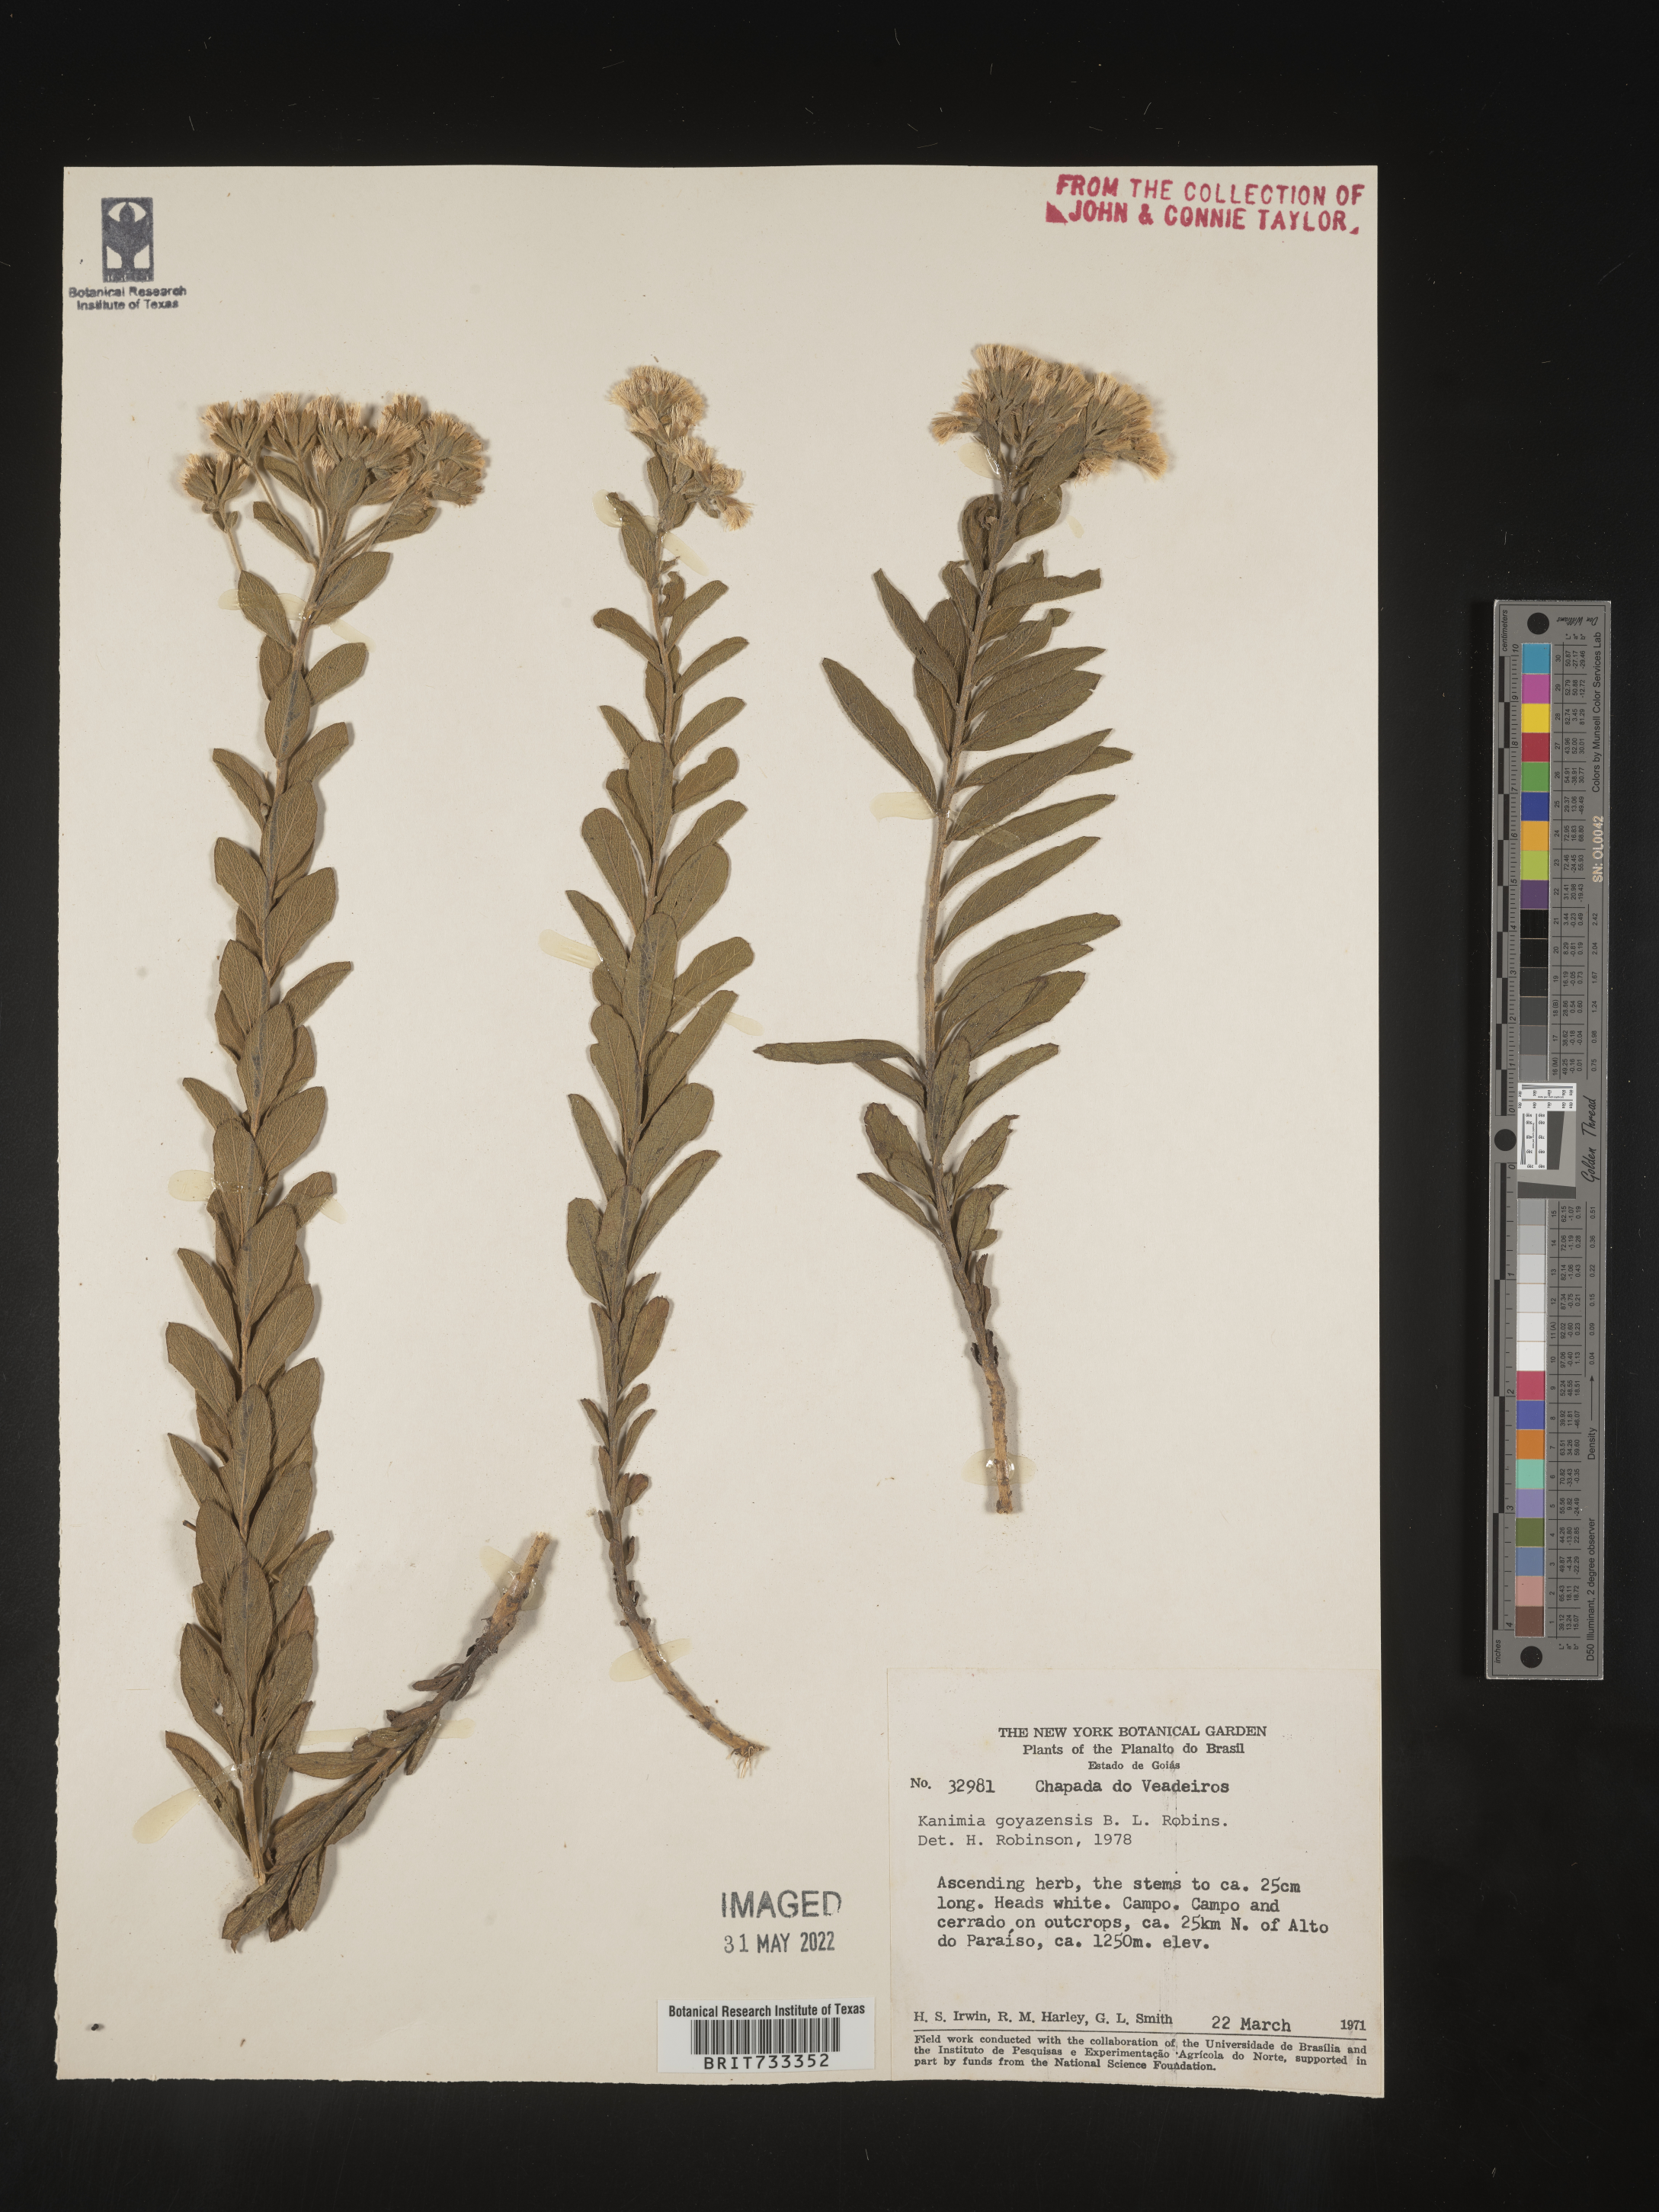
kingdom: Plantae
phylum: Tracheophyta
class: Magnoliopsida
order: Asterales
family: Asteraceae
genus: Mikania
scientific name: Mikania
